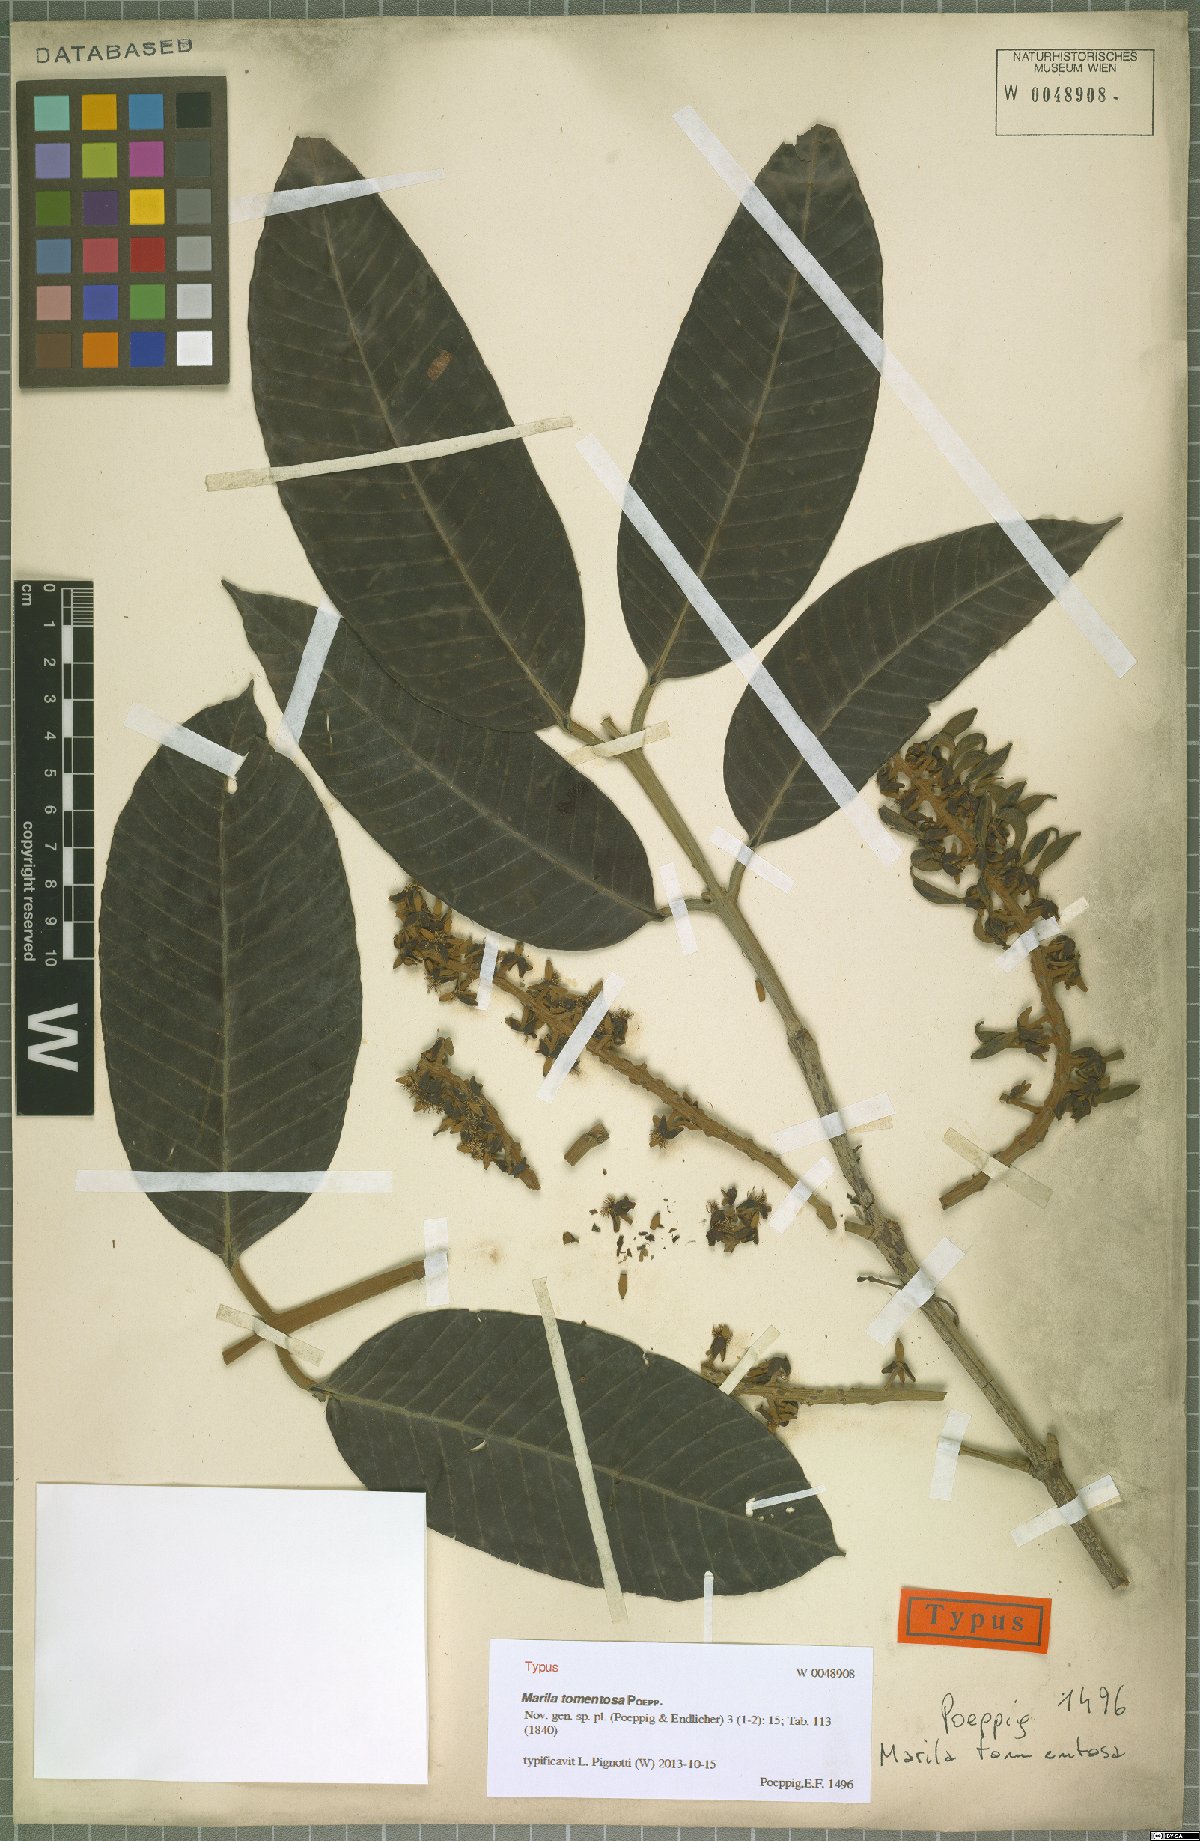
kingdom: Plantae
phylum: Tracheophyta
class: Magnoliopsida
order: Malpighiales
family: Calophyllaceae
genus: Marila
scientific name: Marila tomentosa
